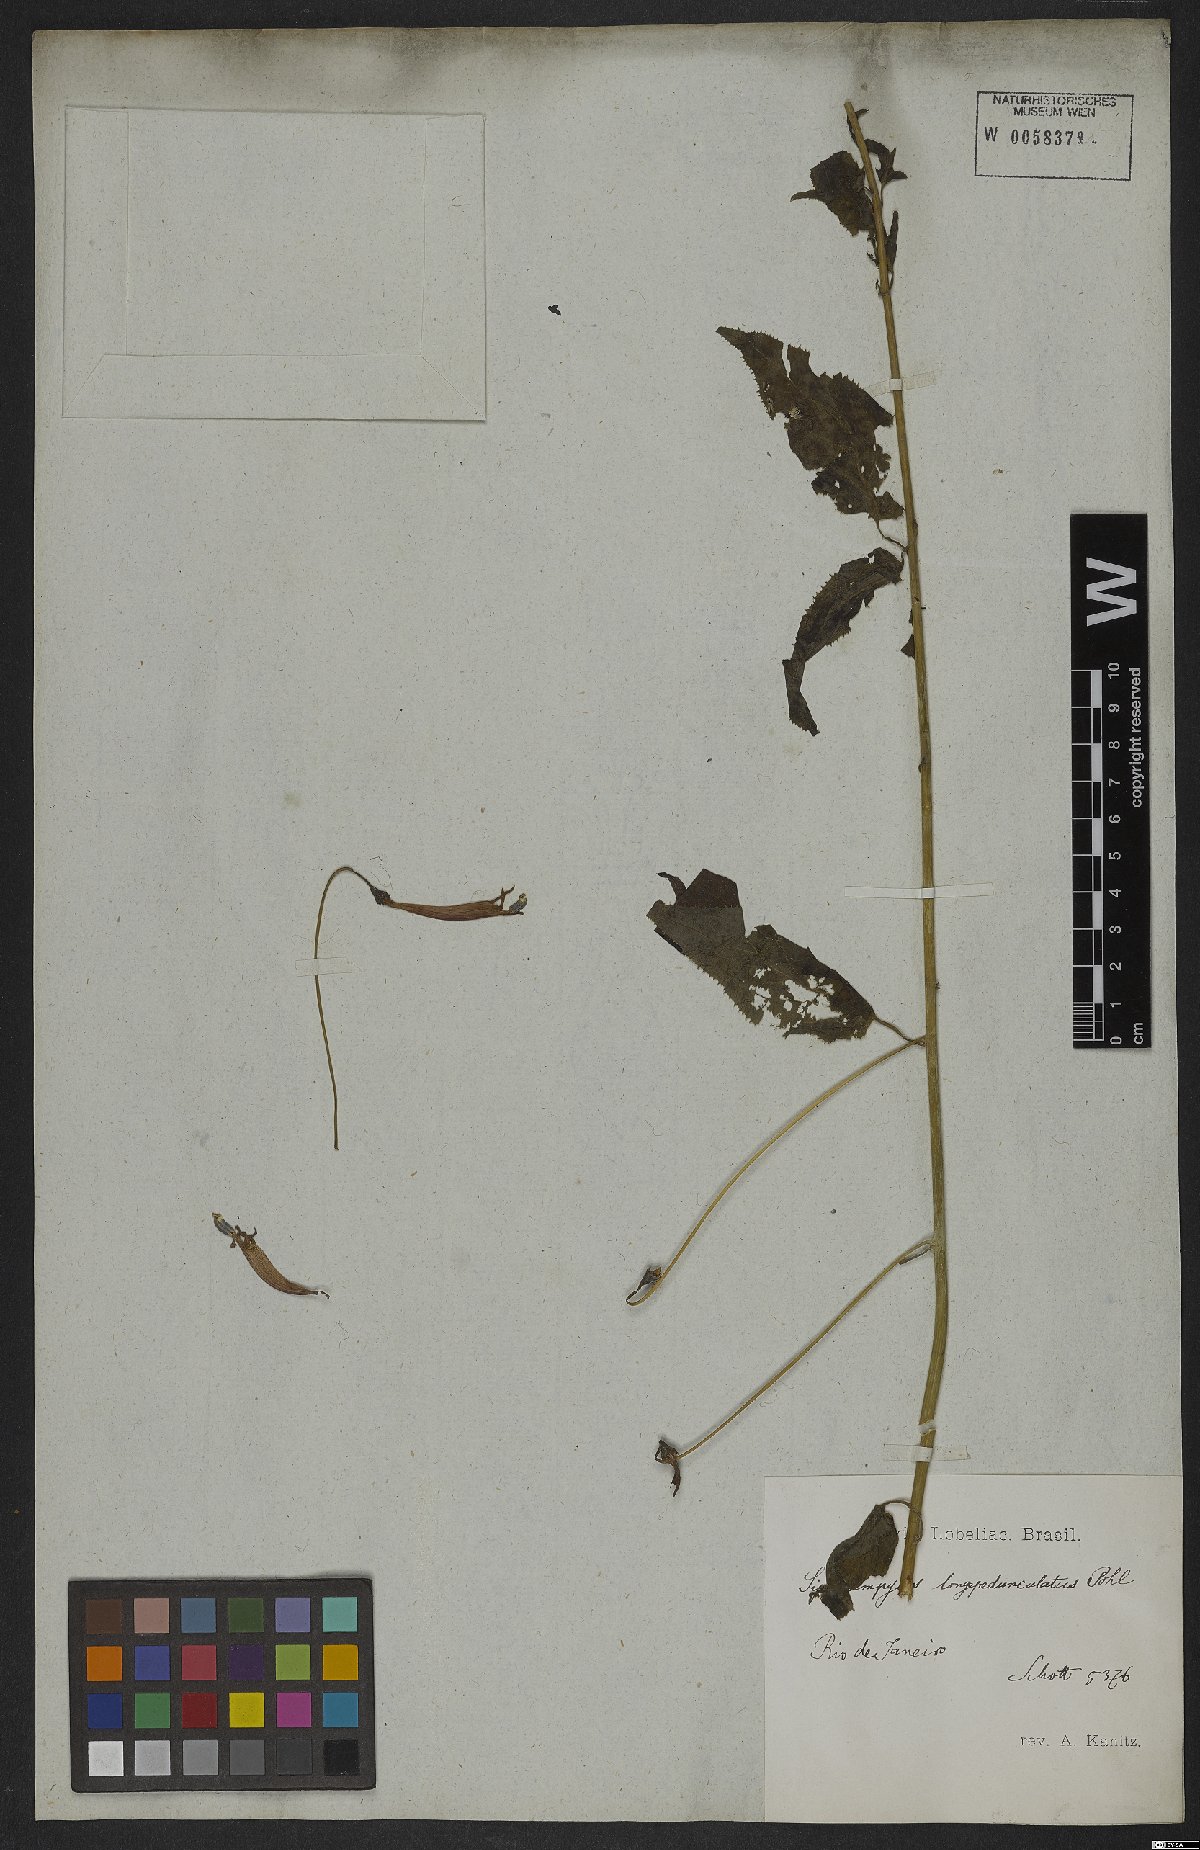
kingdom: Plantae
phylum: Tracheophyta
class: Magnoliopsida
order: Asterales
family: Campanulaceae
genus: Siphocampylus
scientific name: Siphocampylus longipedunculatus
